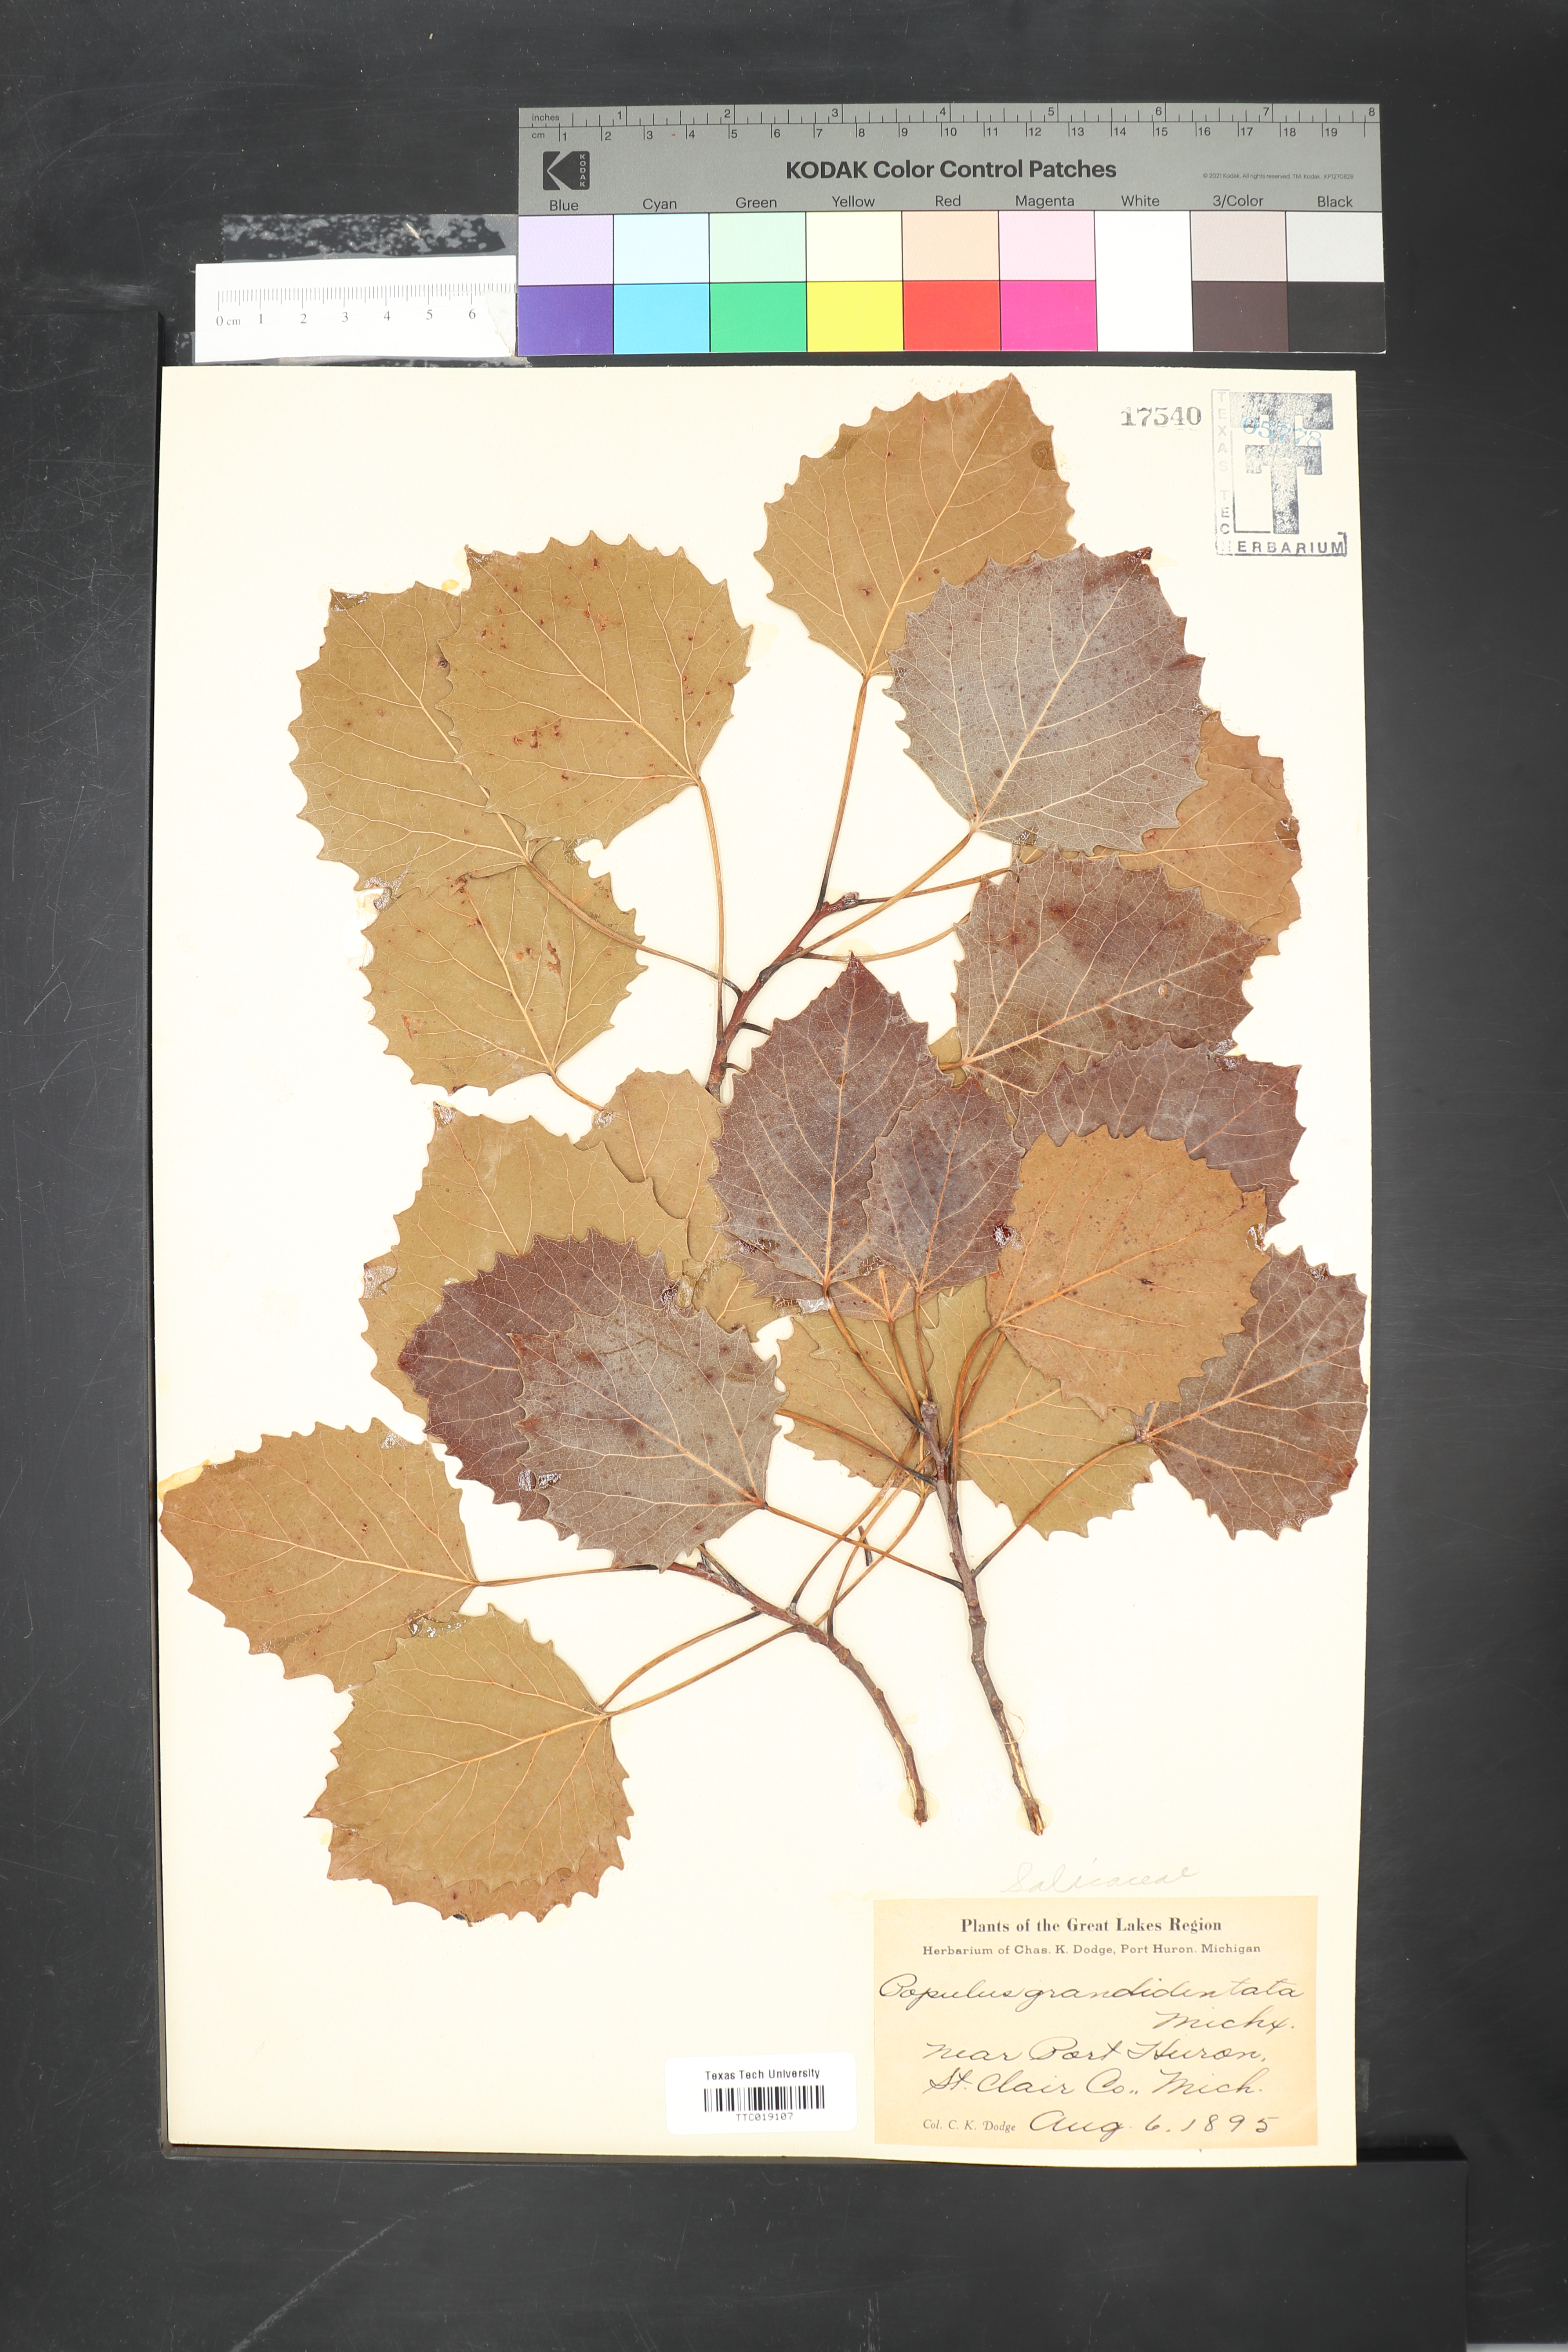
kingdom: Plantae
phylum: Tracheophyta
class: Magnoliopsida
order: Malpighiales
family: Salicaceae
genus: Populus
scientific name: Populus grandidentata
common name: Bigtooth aspen
